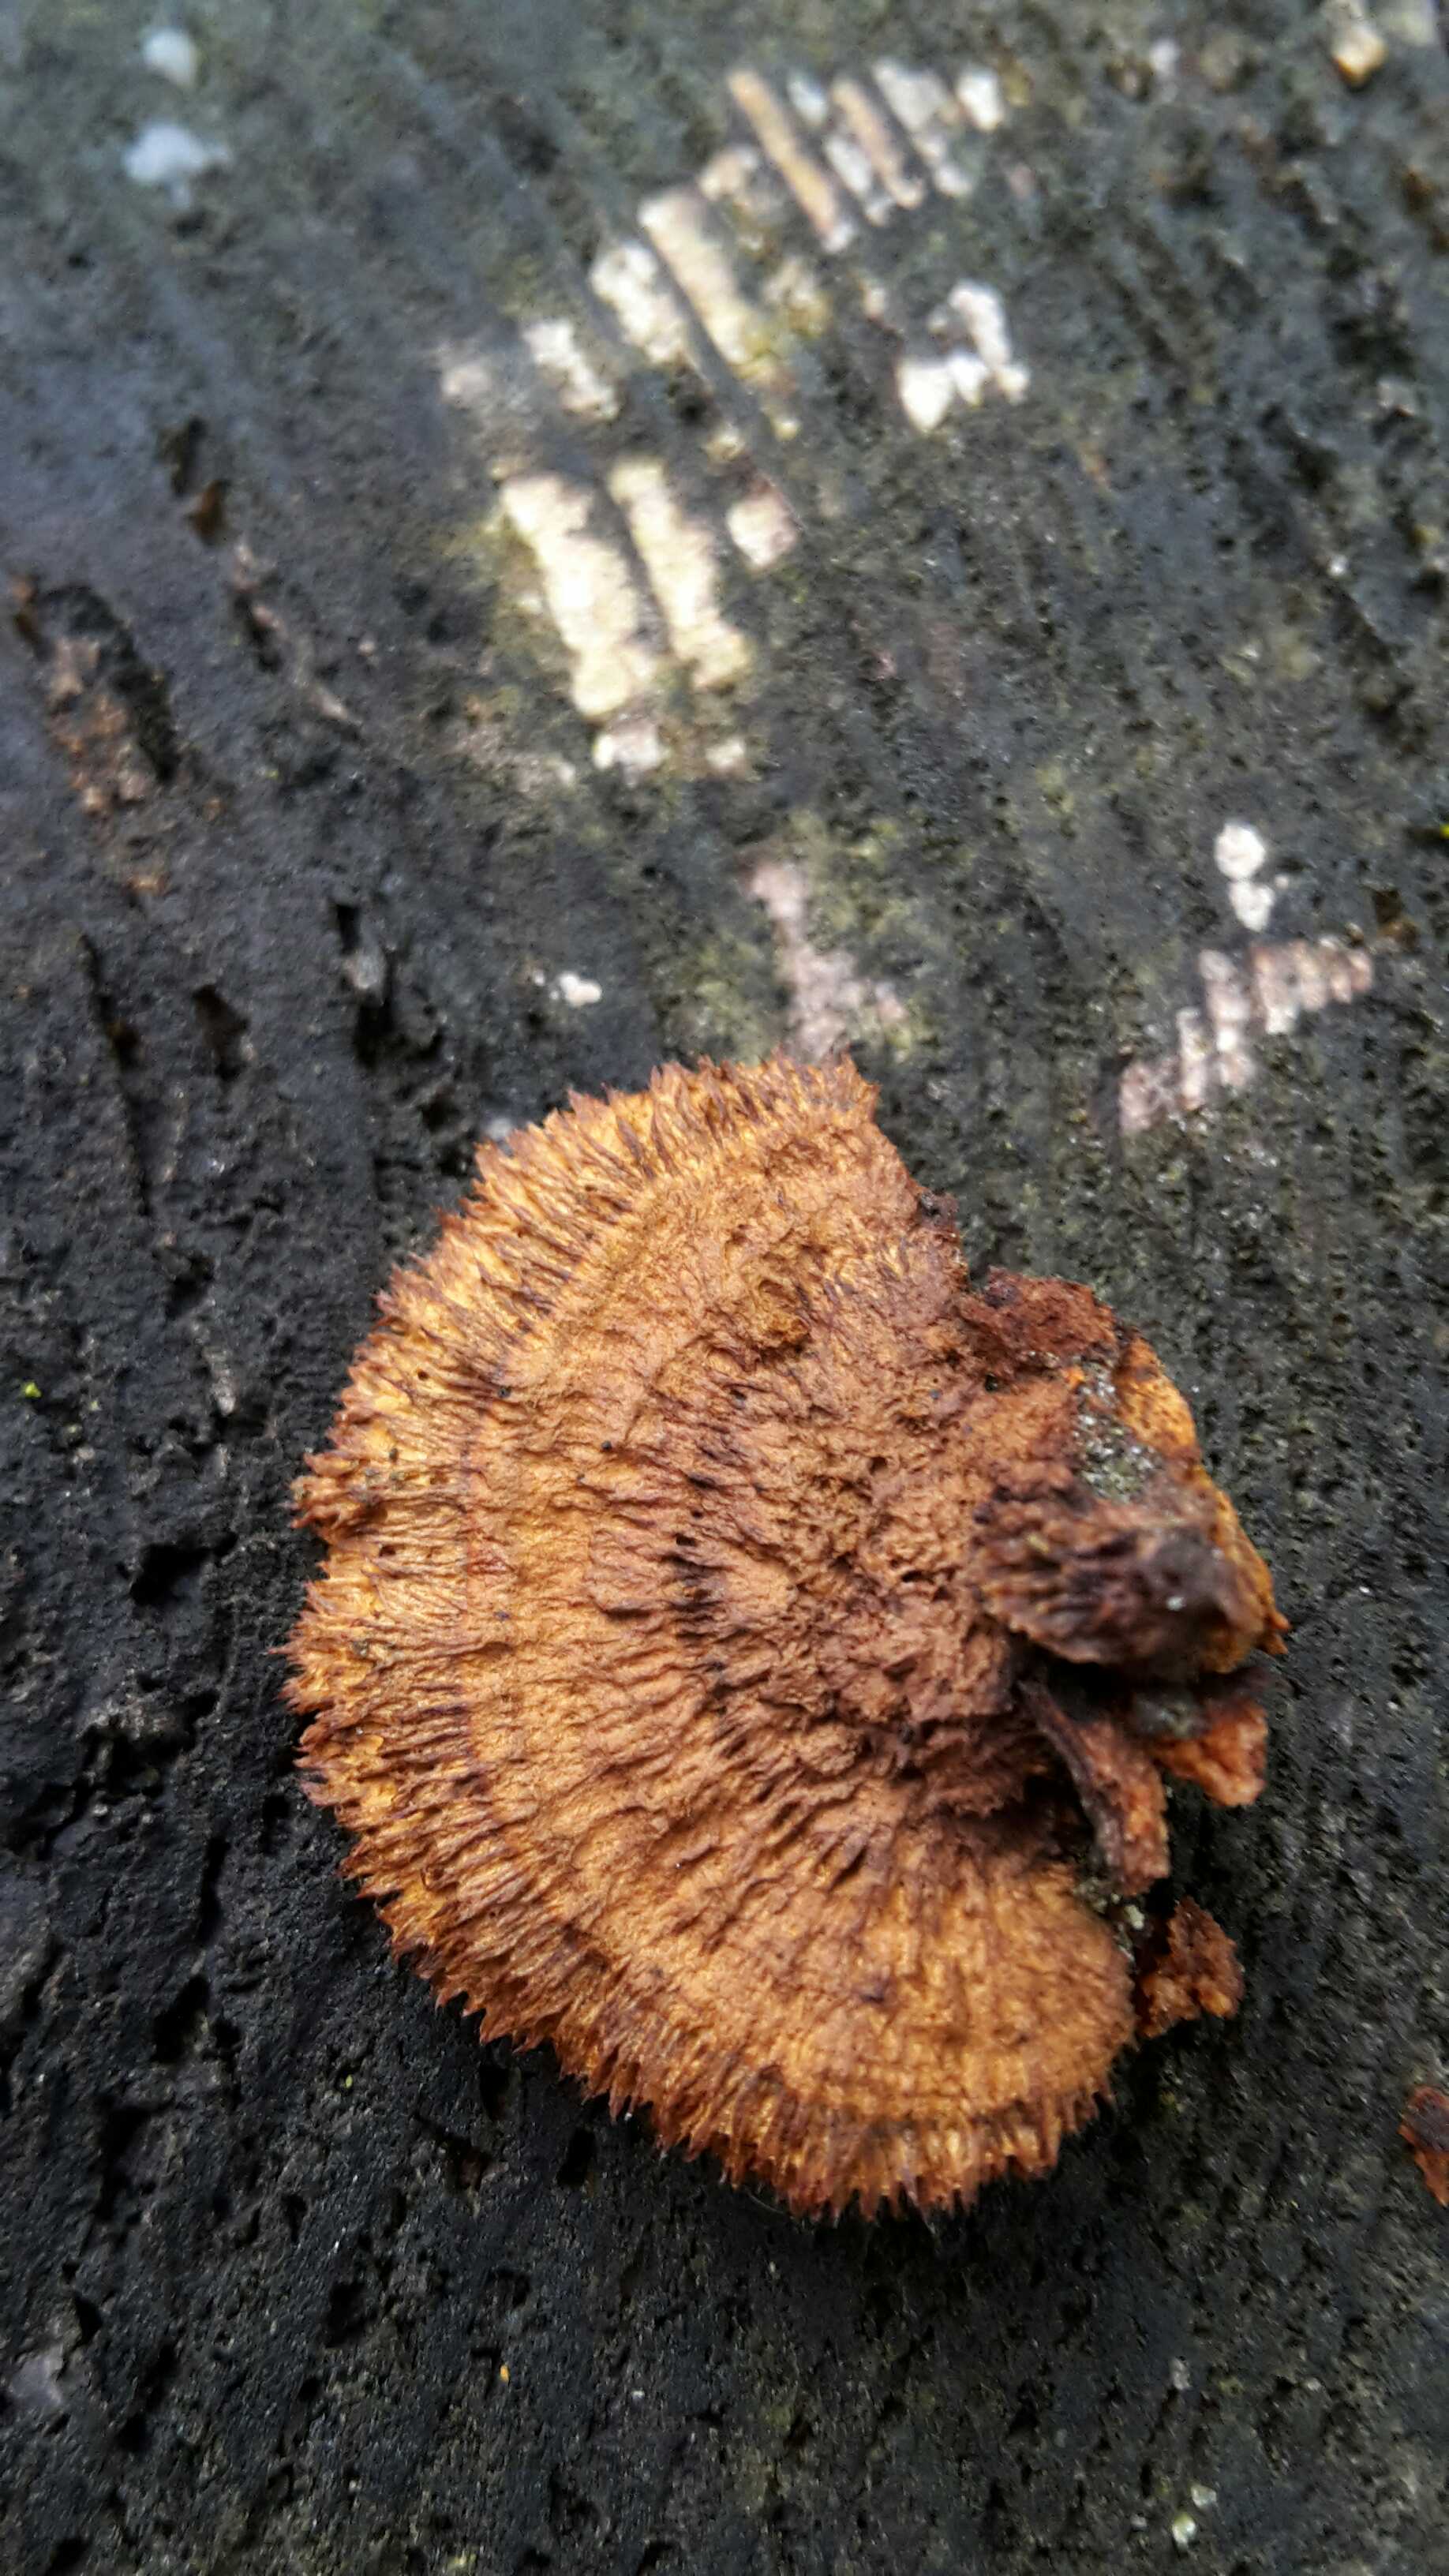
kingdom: Fungi
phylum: Basidiomycota
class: Agaricomycetes
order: Gloeophyllales
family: Gloeophyllaceae
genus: Gloeophyllum
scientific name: Gloeophyllum sepiarium
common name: fyrre-korkhat
